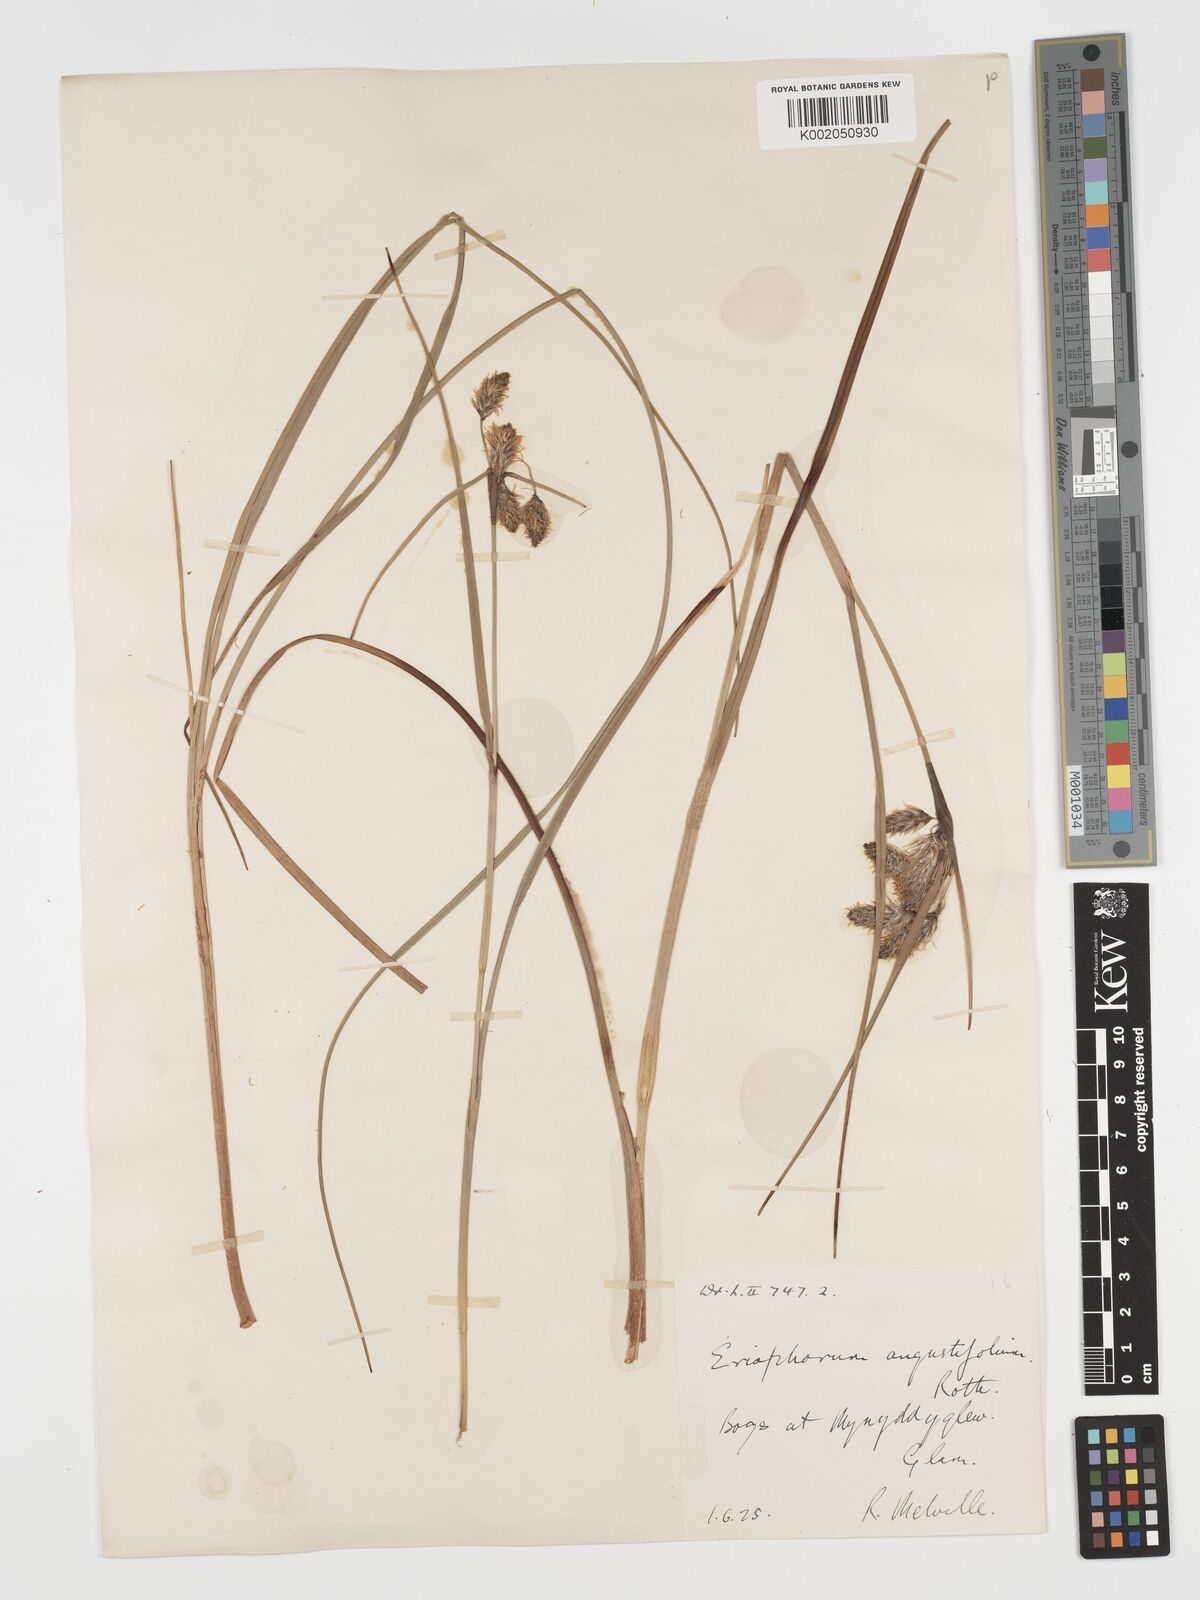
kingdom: Plantae
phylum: Tracheophyta
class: Liliopsida
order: Poales
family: Cyperaceae
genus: Eriophorum
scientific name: Eriophorum angustifolium
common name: Common cottongrass
